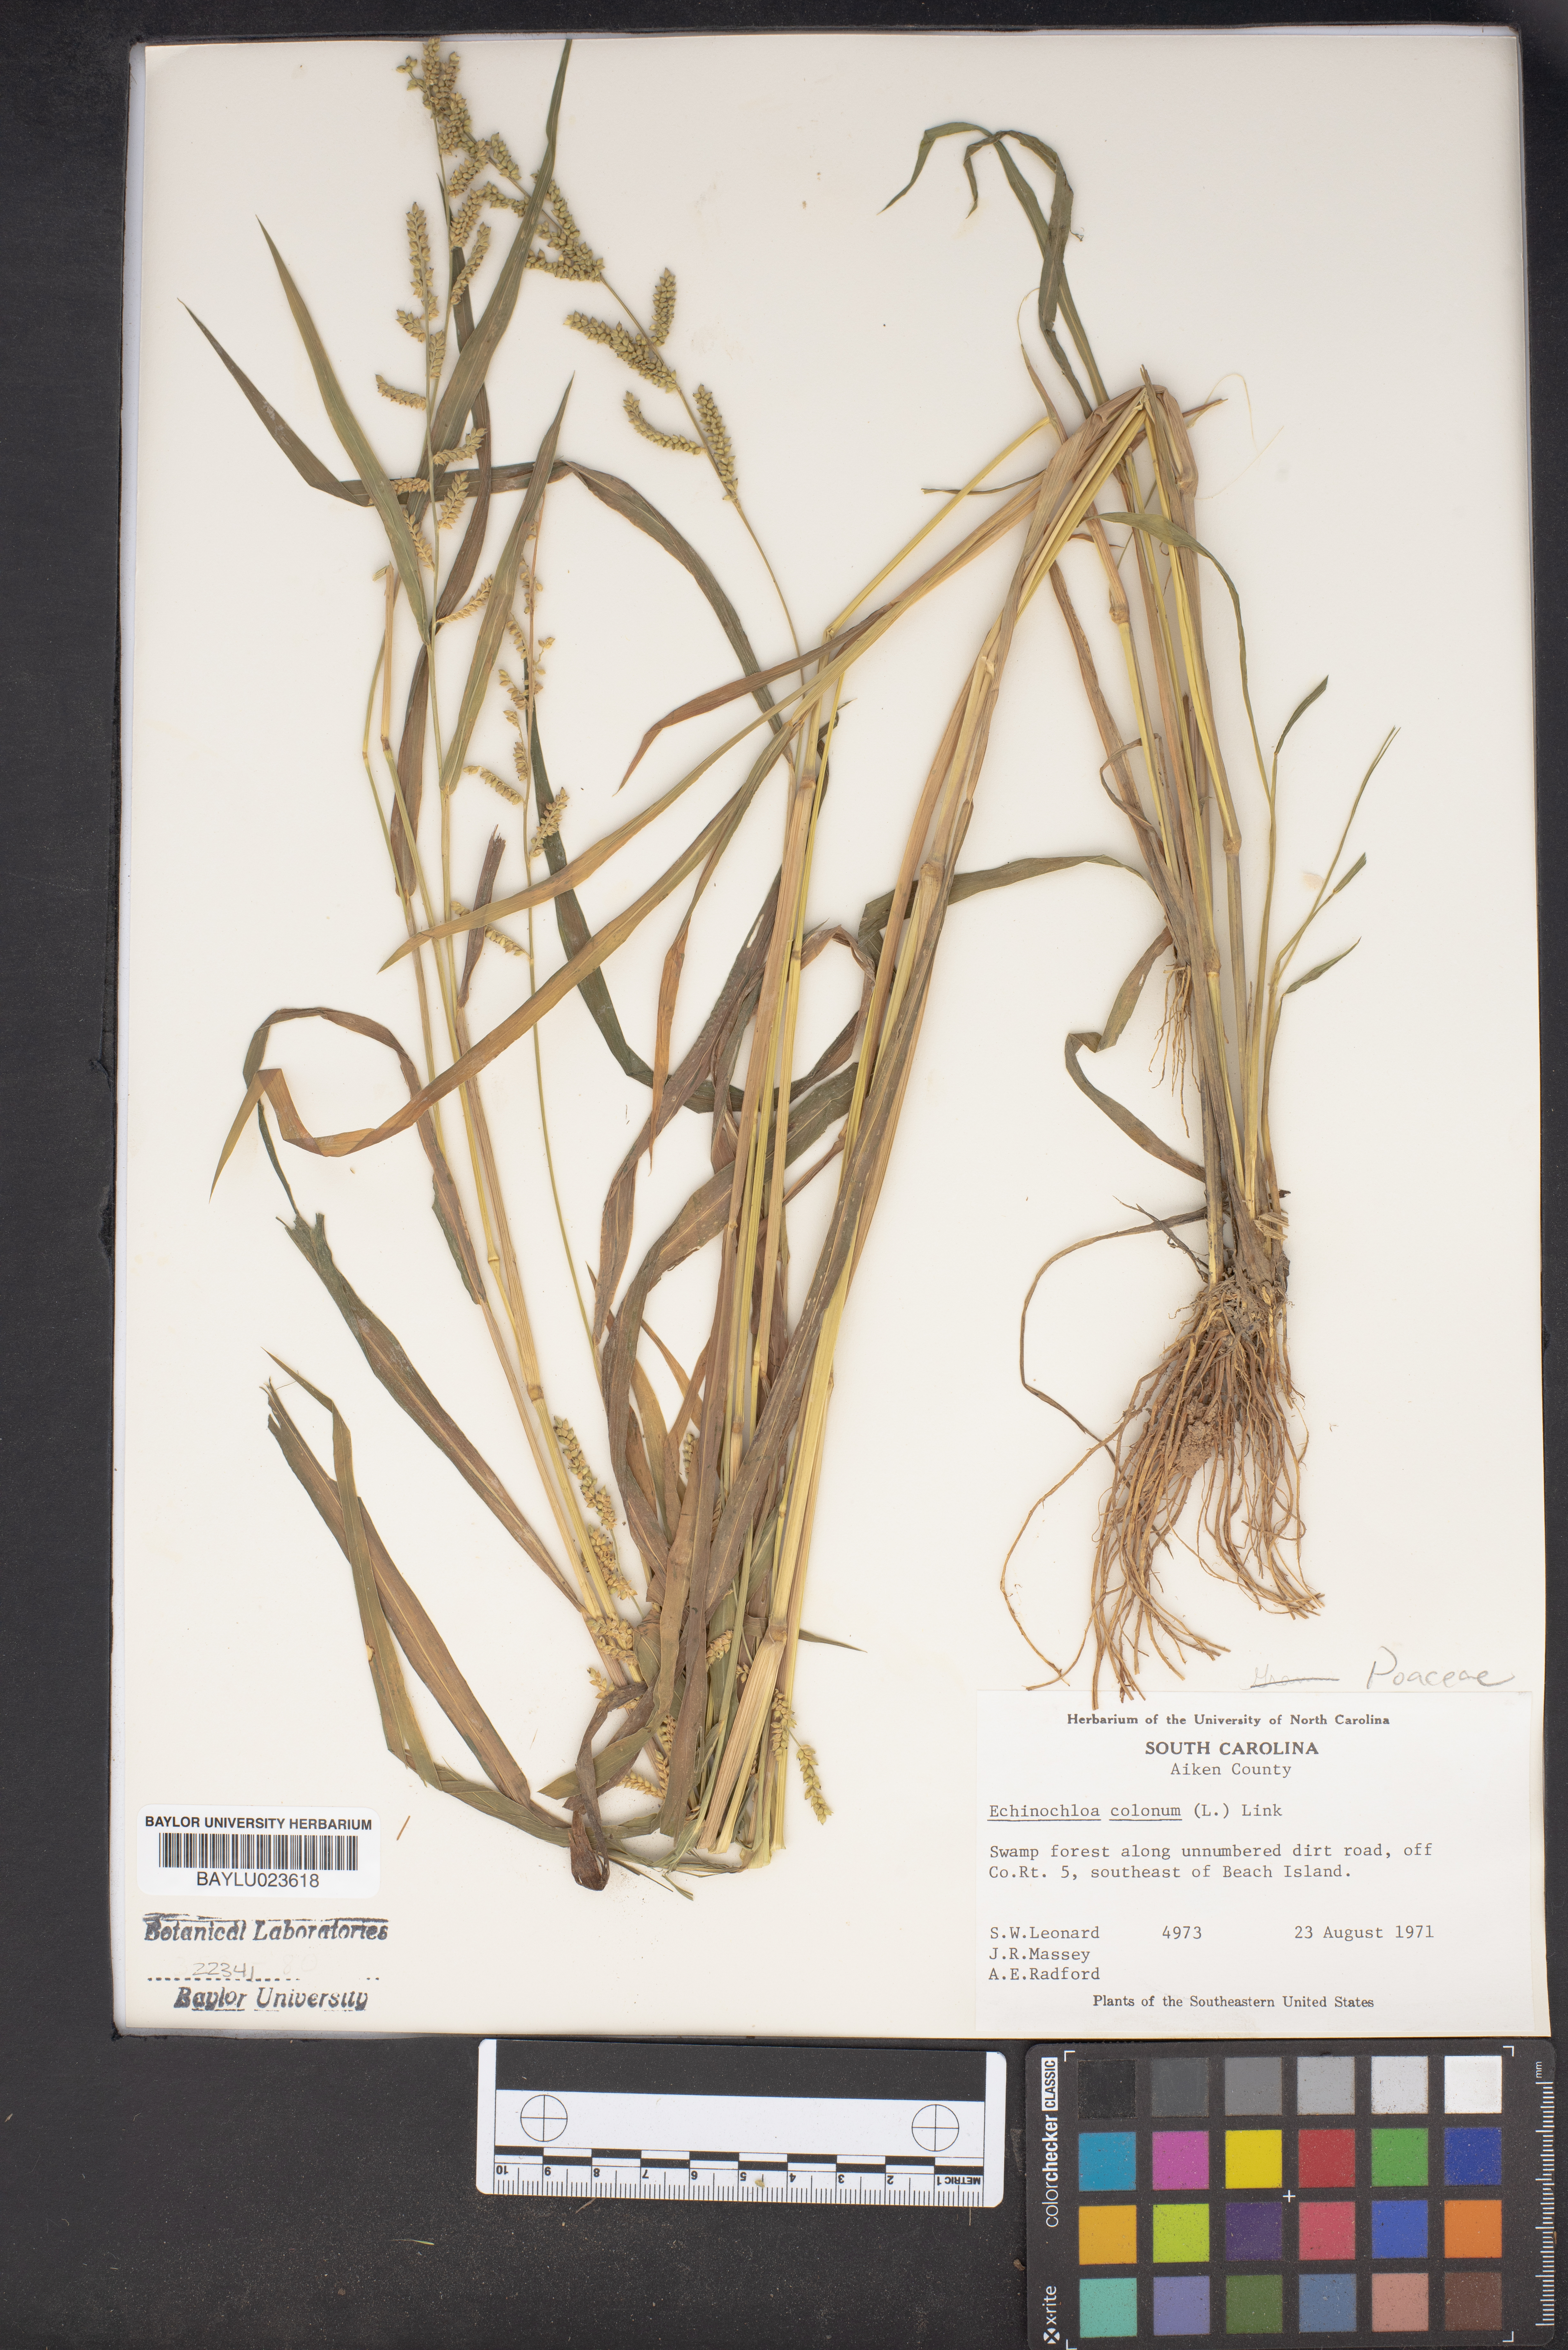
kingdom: Plantae
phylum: Tracheophyta
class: Liliopsida
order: Poales
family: Poaceae
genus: Echinochloa
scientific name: Echinochloa colonum
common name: Jungle rice
